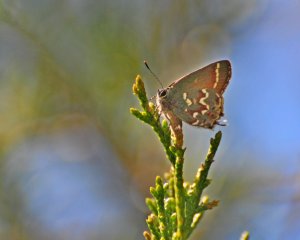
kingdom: Animalia
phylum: Arthropoda
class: Insecta
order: Lepidoptera
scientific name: Lepidoptera
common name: Butterflies
